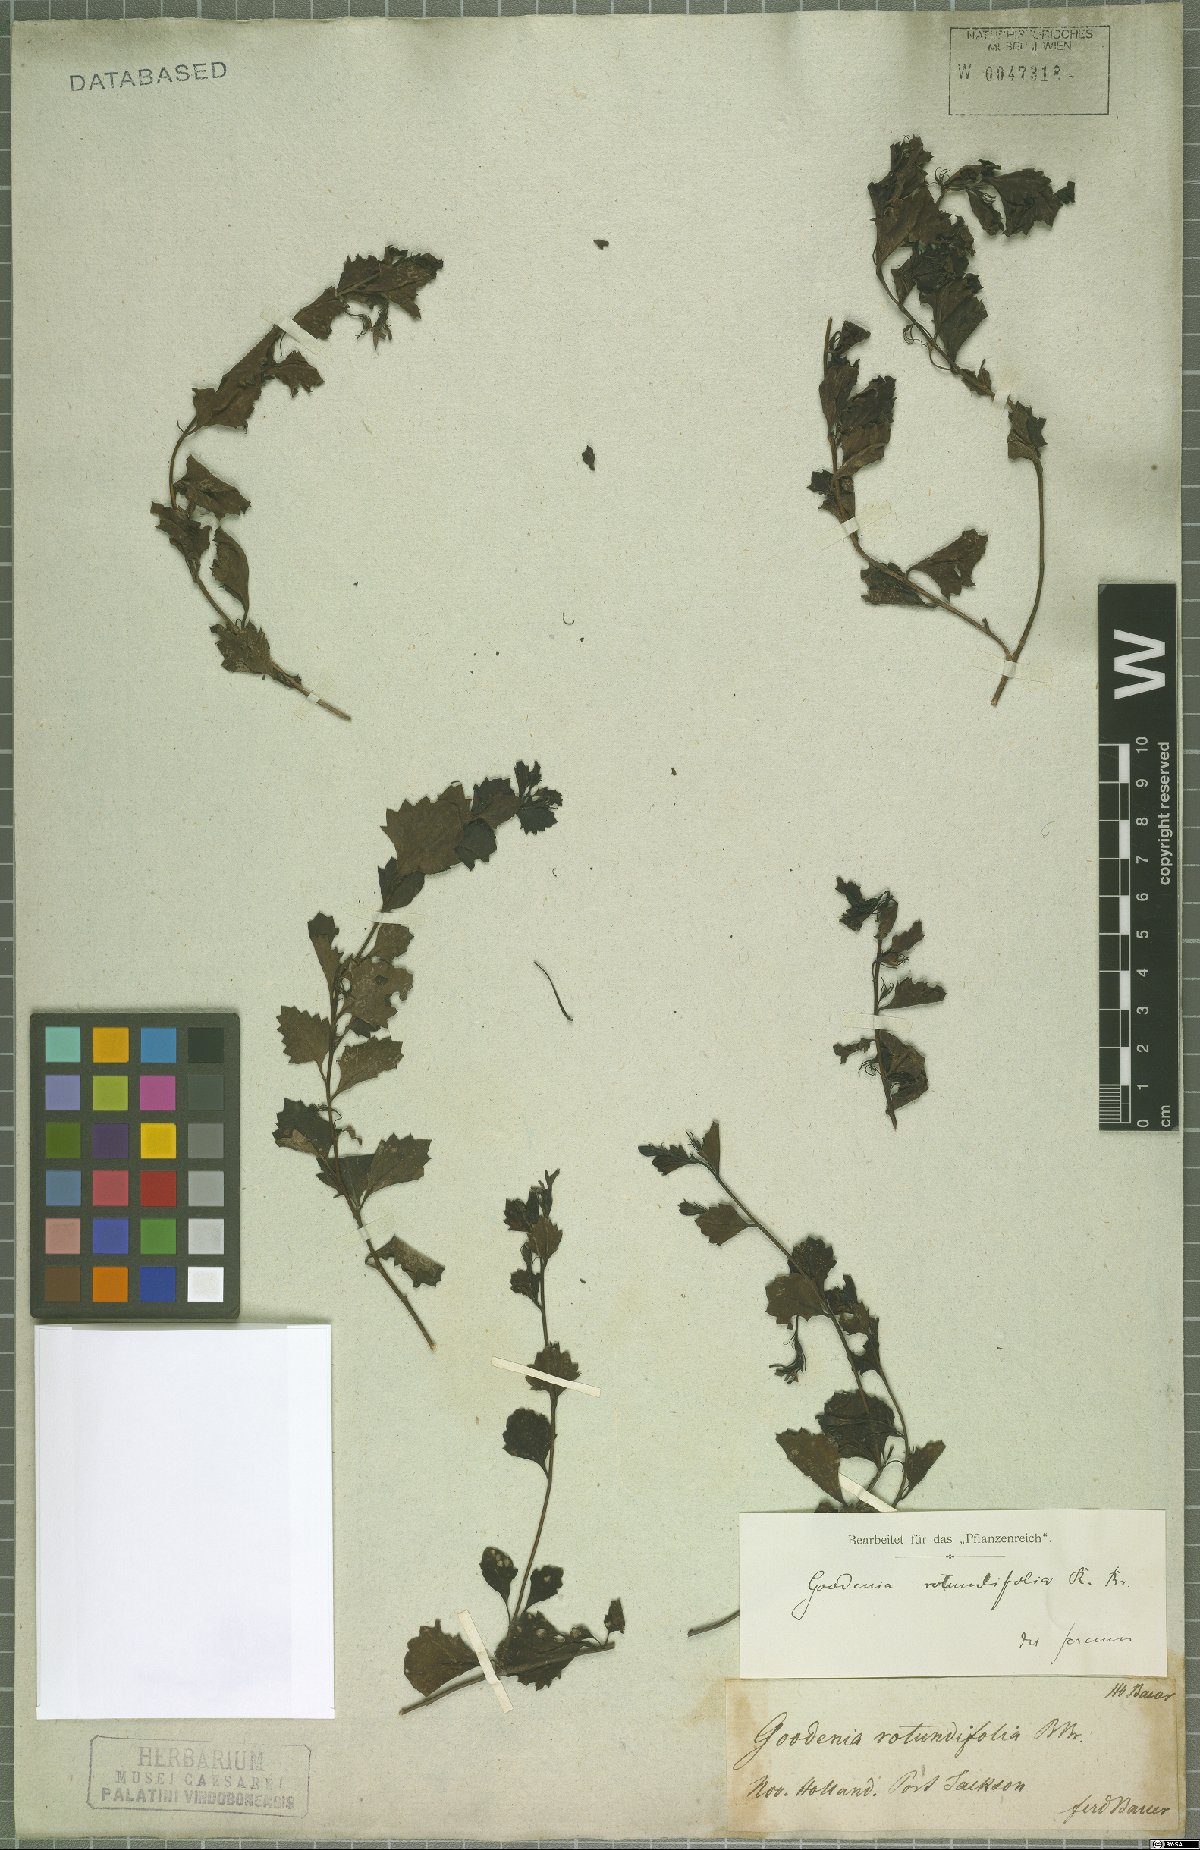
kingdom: Plantae
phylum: Tracheophyta
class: Magnoliopsida
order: Asterales
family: Goodeniaceae
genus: Goodenia
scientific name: Goodenia rotundifolia
